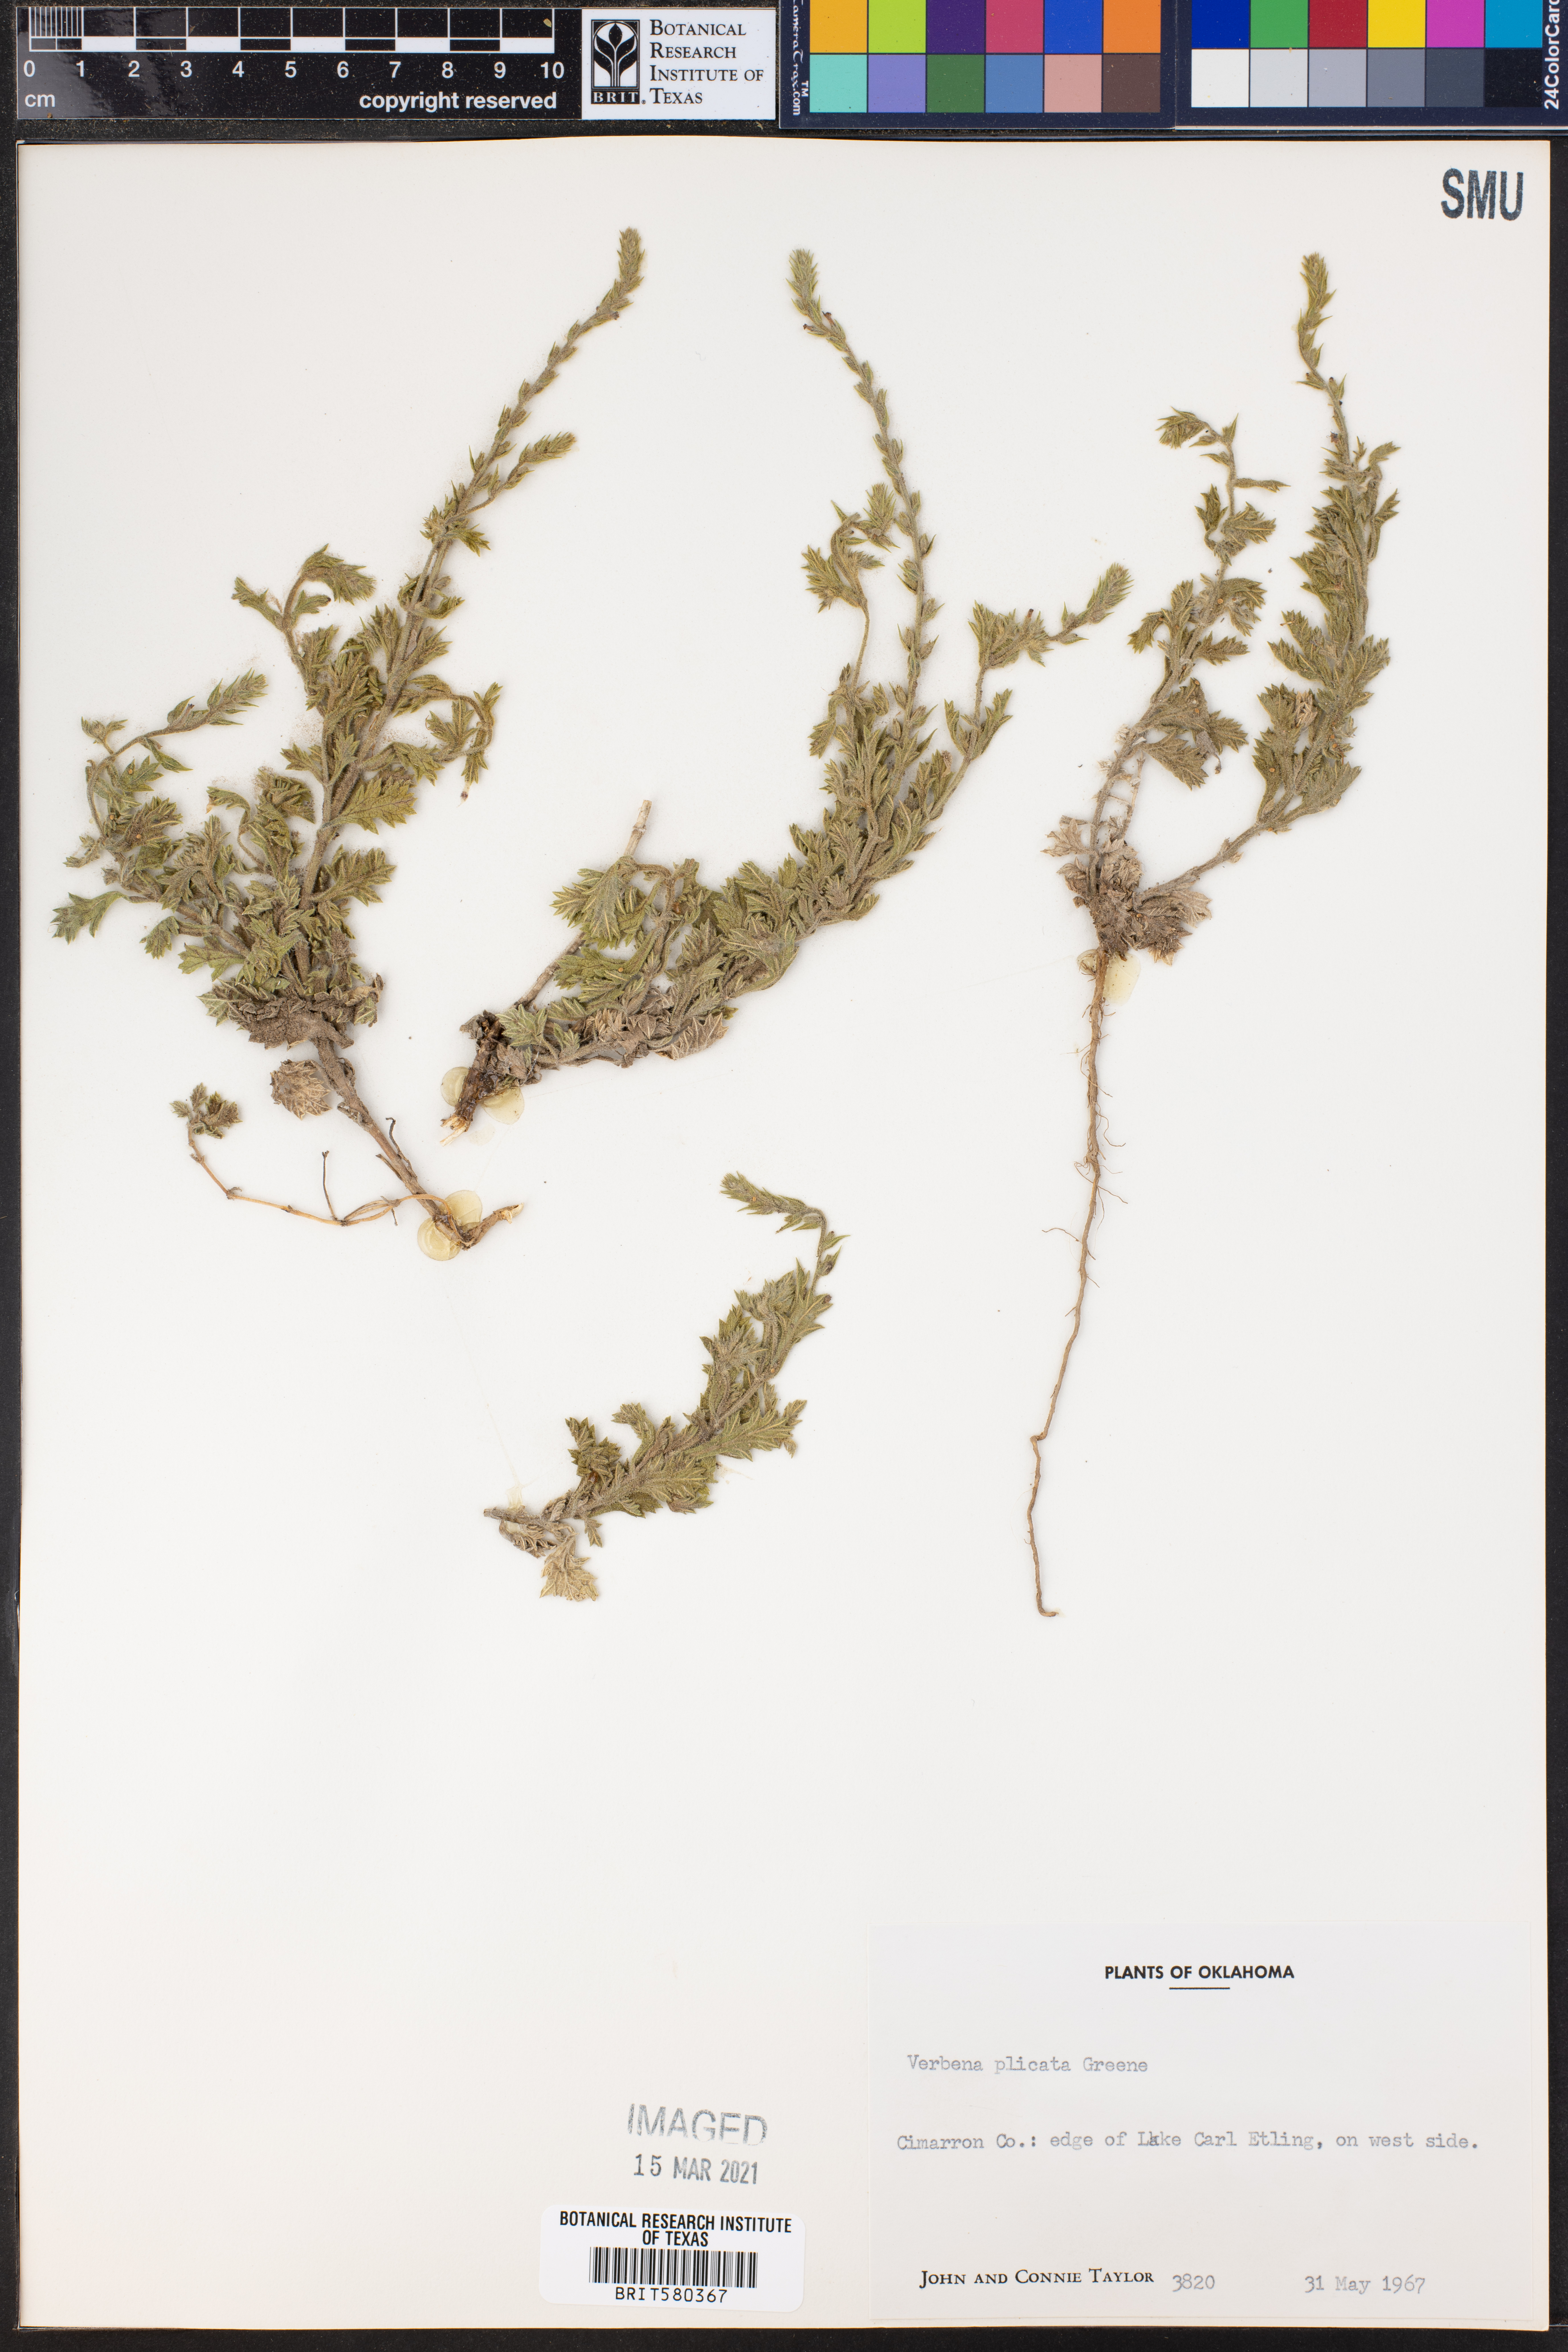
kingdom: Plantae
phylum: Tracheophyta
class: Magnoliopsida
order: Lamiales
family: Verbenaceae
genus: Verbena
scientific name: Verbena plicata
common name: Fan-leaf vervain
